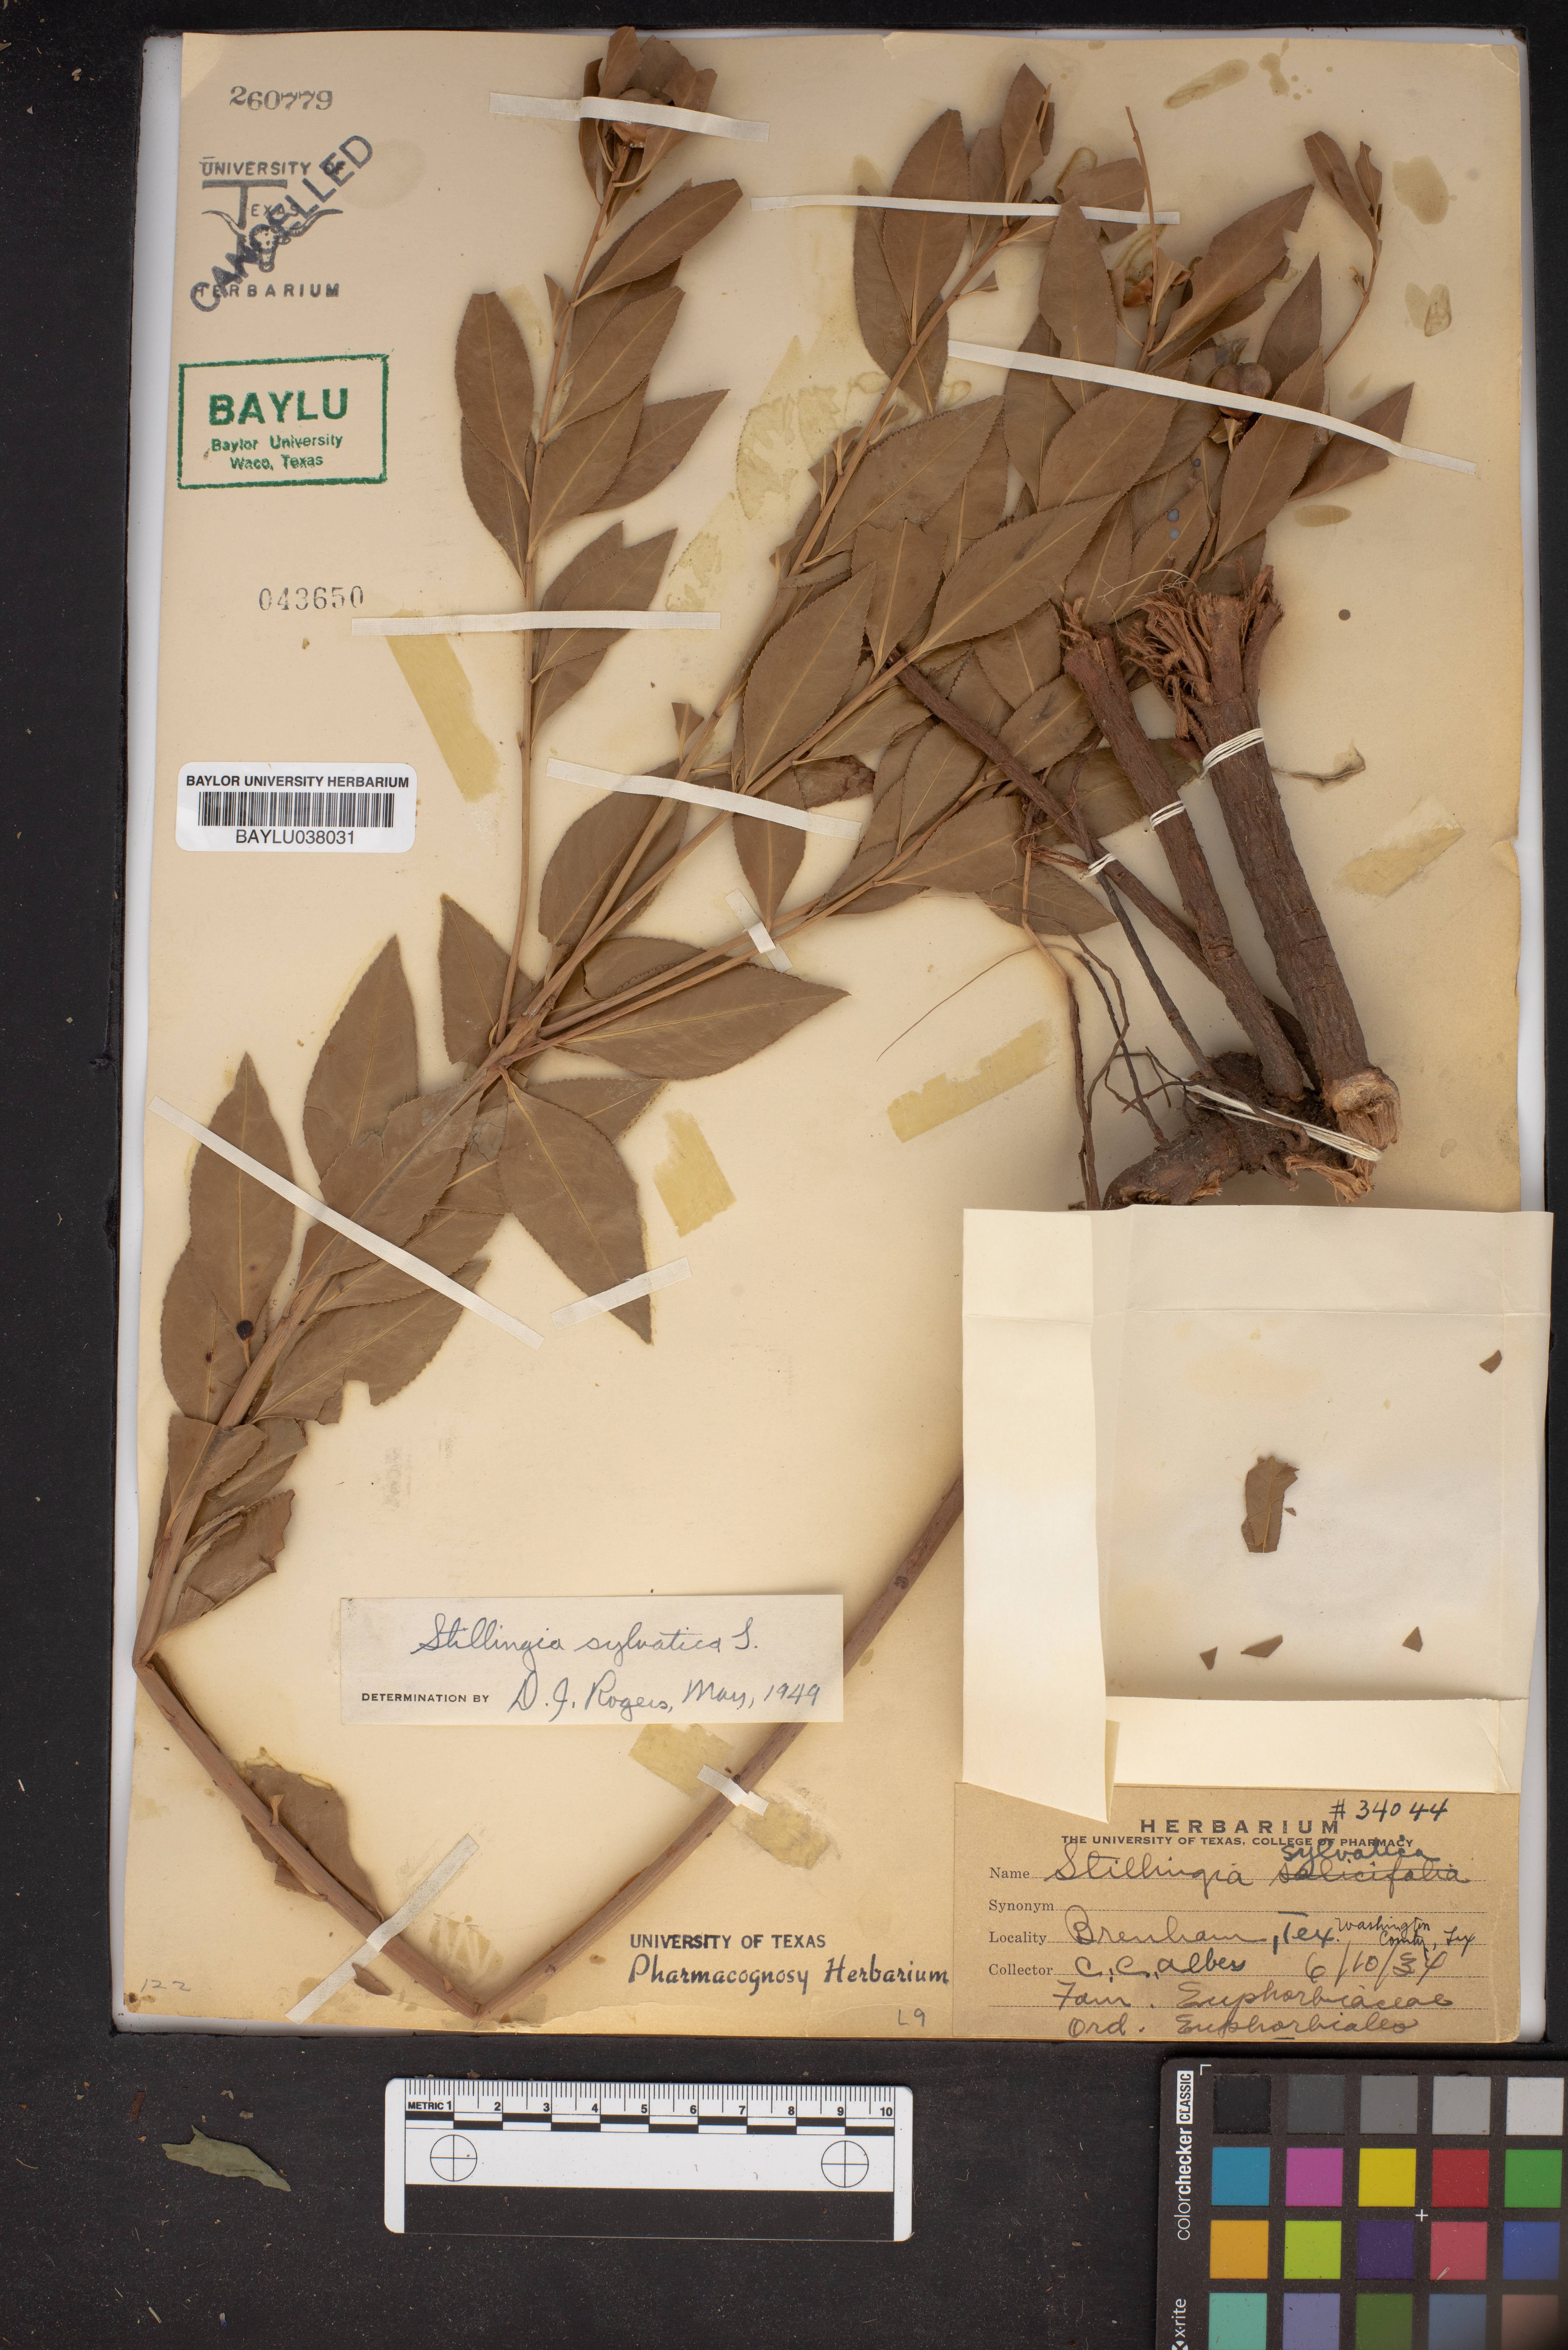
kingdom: Plantae
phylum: Tracheophyta
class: Magnoliopsida
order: Malpighiales
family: Euphorbiaceae
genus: Stillingia
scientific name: Stillingia sylvatica
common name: Queen's-delight
